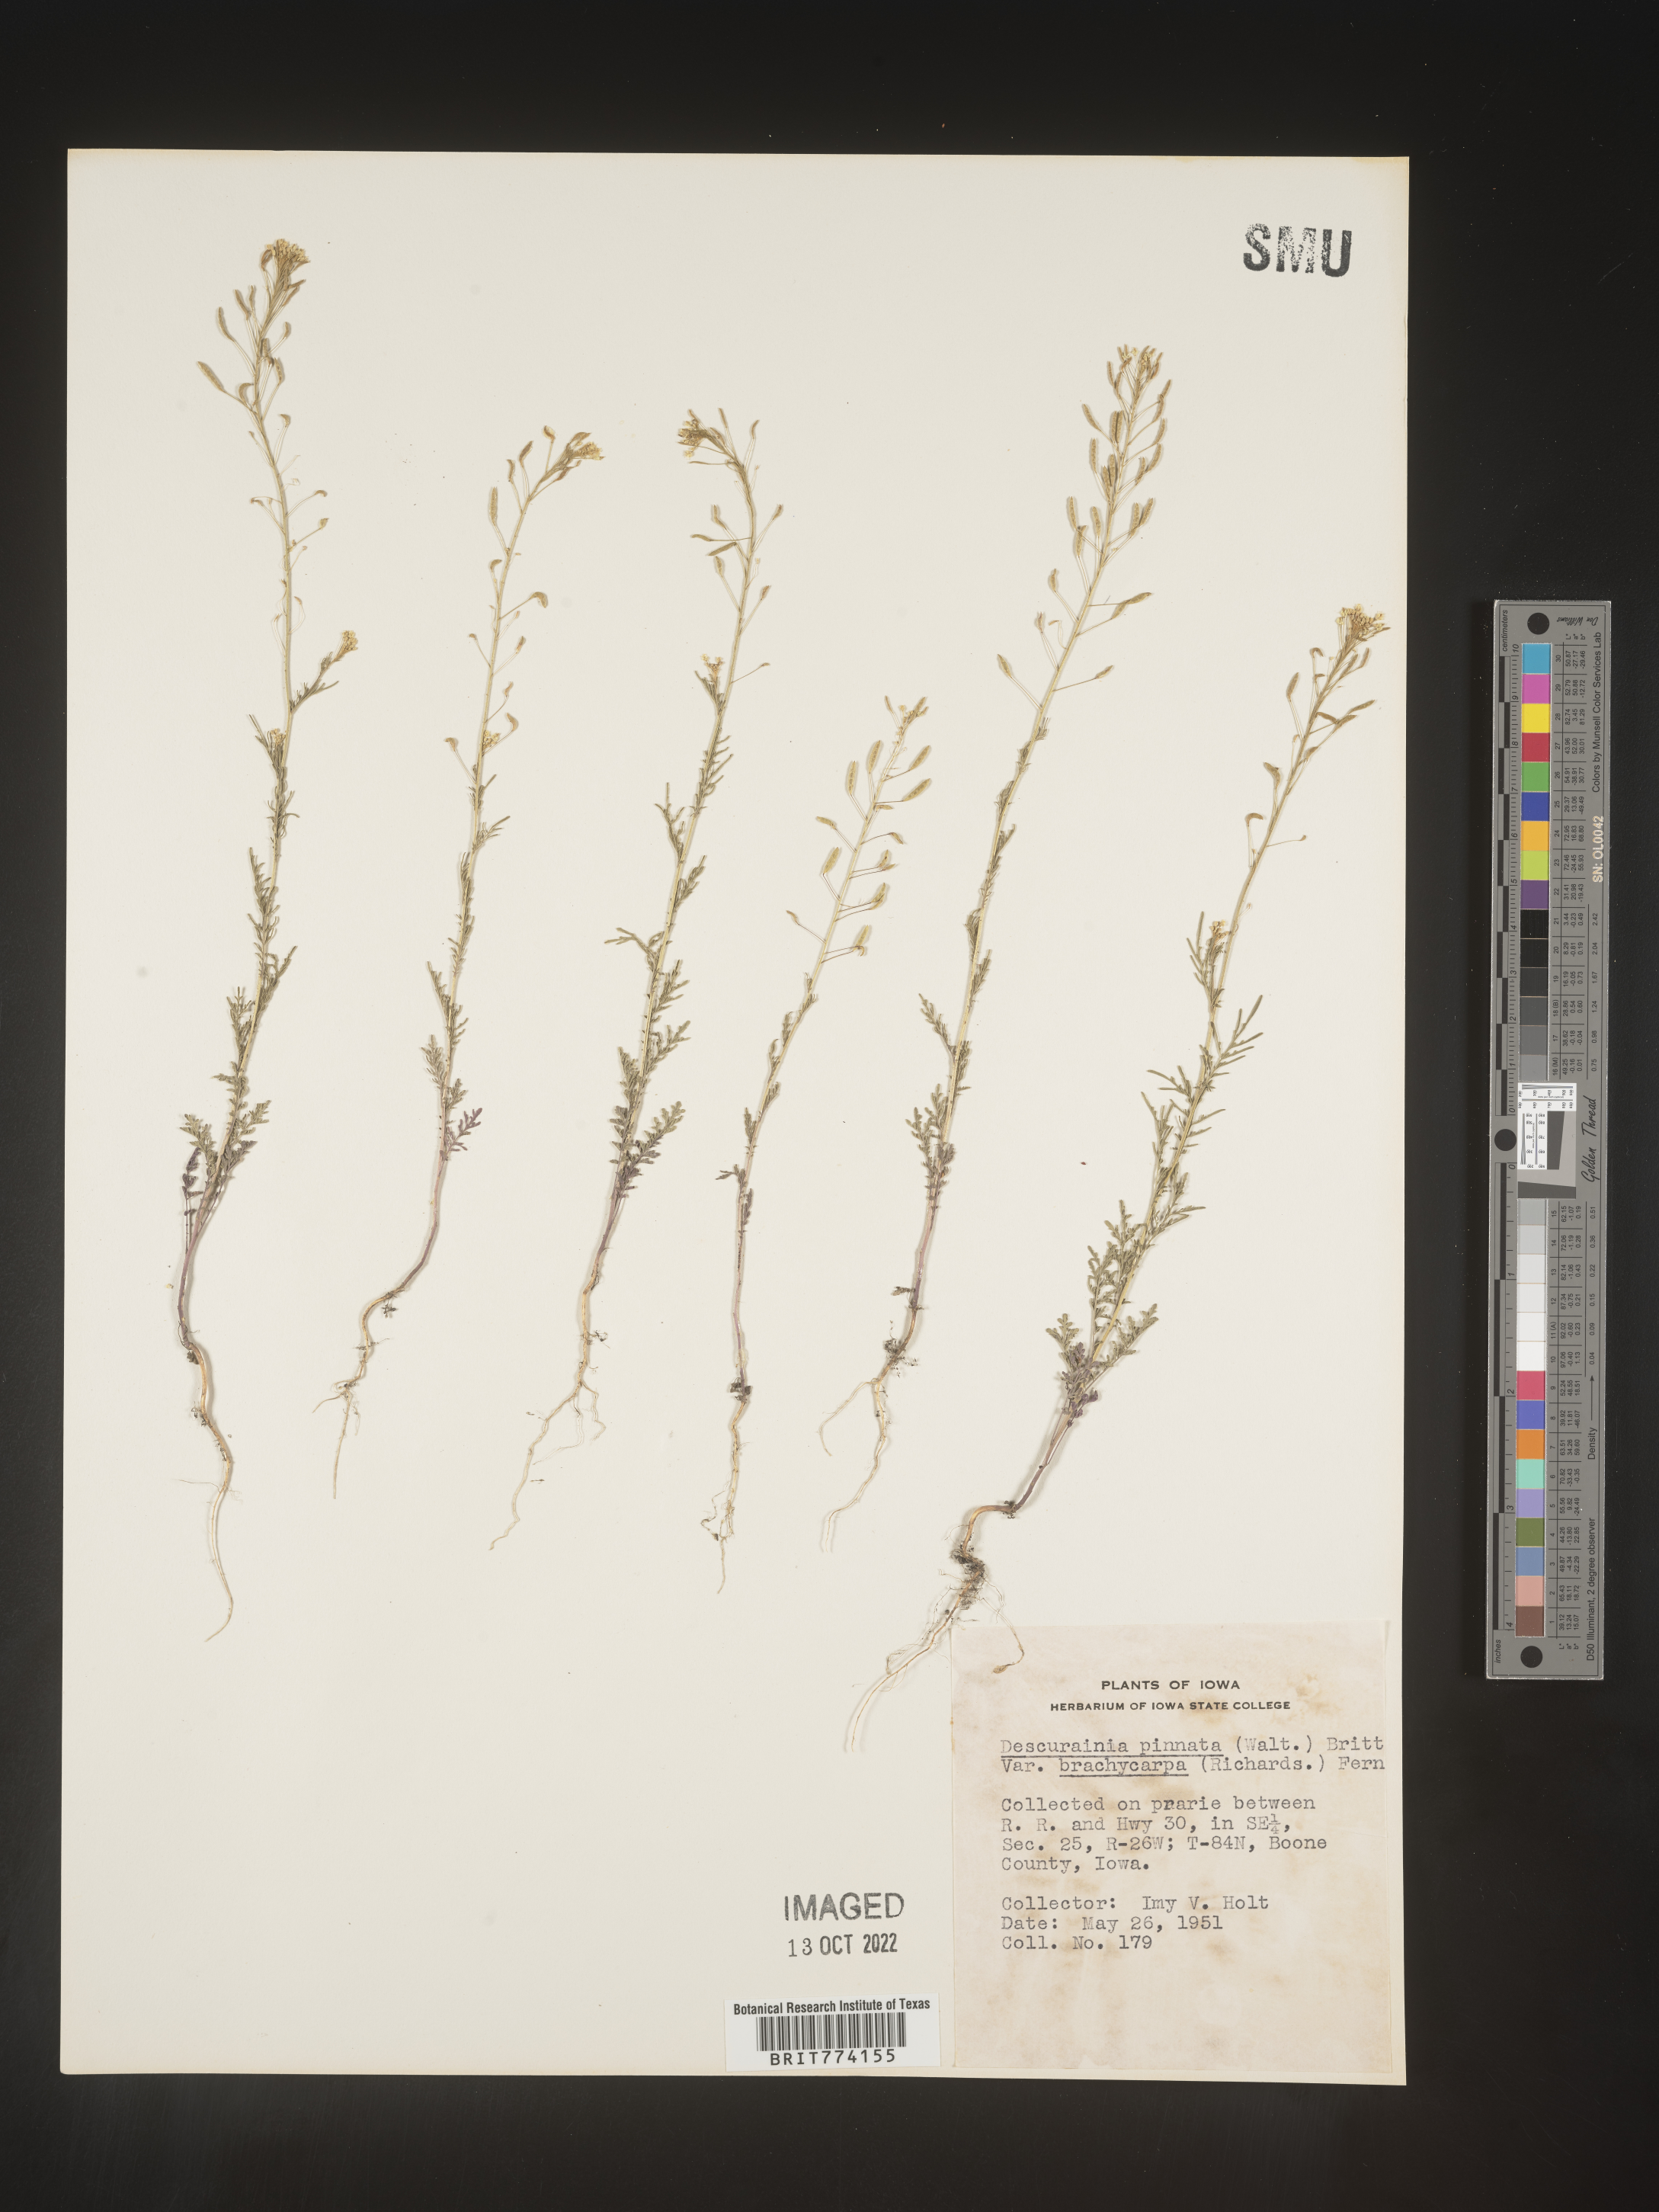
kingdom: Plantae
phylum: Tracheophyta
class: Magnoliopsida
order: Brassicales
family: Brassicaceae
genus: Descurainia
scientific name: Descurainia pinnata
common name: Western tansy mustard
